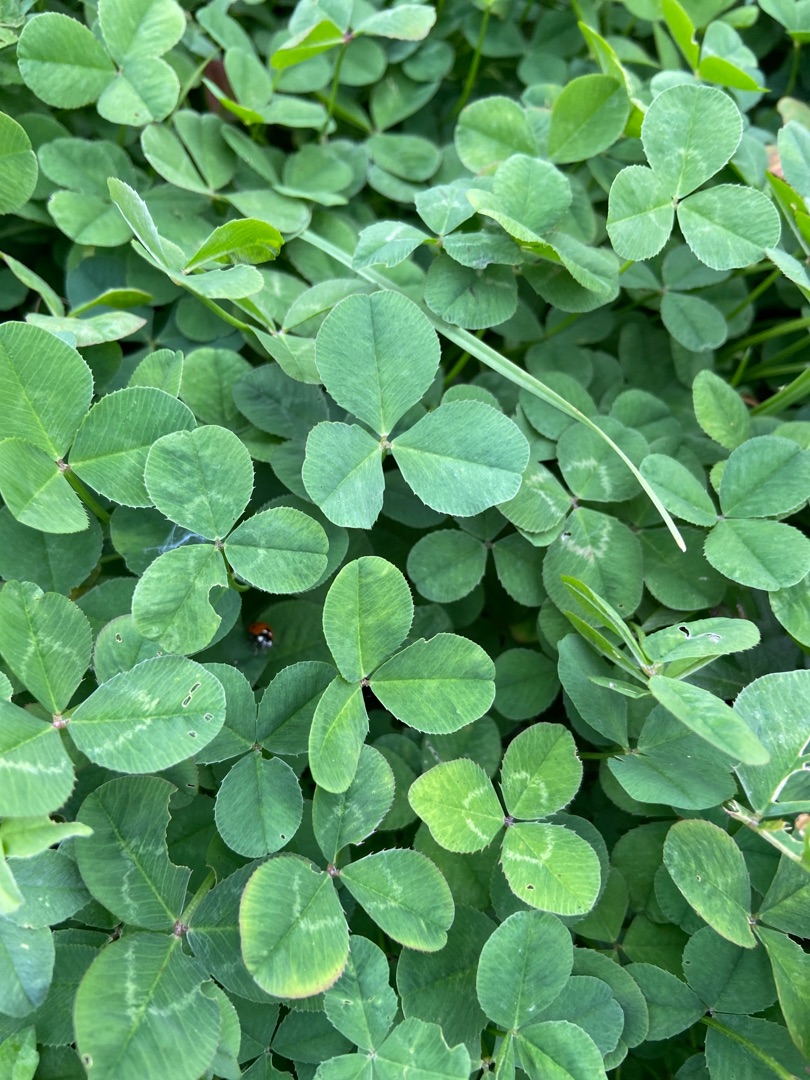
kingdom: Plantae
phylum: Tracheophyta
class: Magnoliopsida
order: Fabales
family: Fabaceae
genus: Trifolium
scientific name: Trifolium repens
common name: Hvid-kløver
